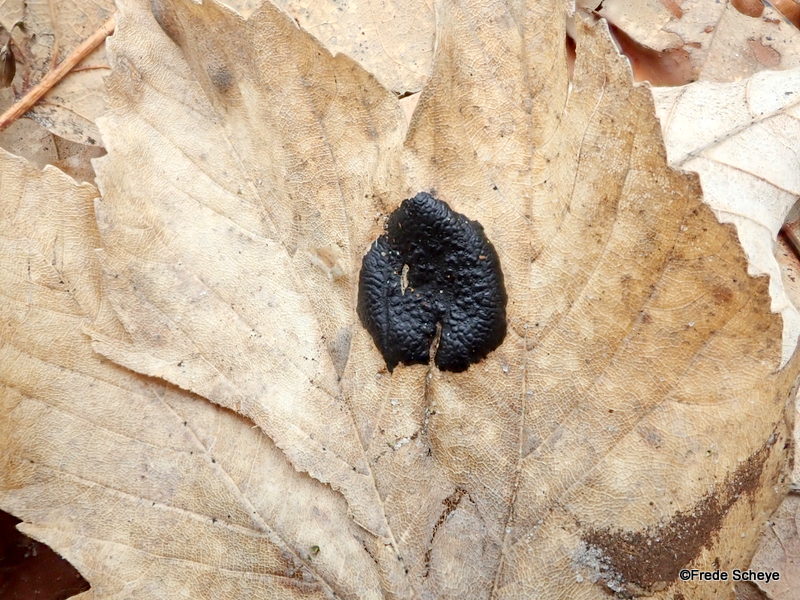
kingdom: Fungi
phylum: Ascomycota
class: Leotiomycetes
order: Rhytismatales
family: Rhytismataceae
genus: Rhytisma
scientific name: Rhytisma acerinum
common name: ahorn-rynkeplet
